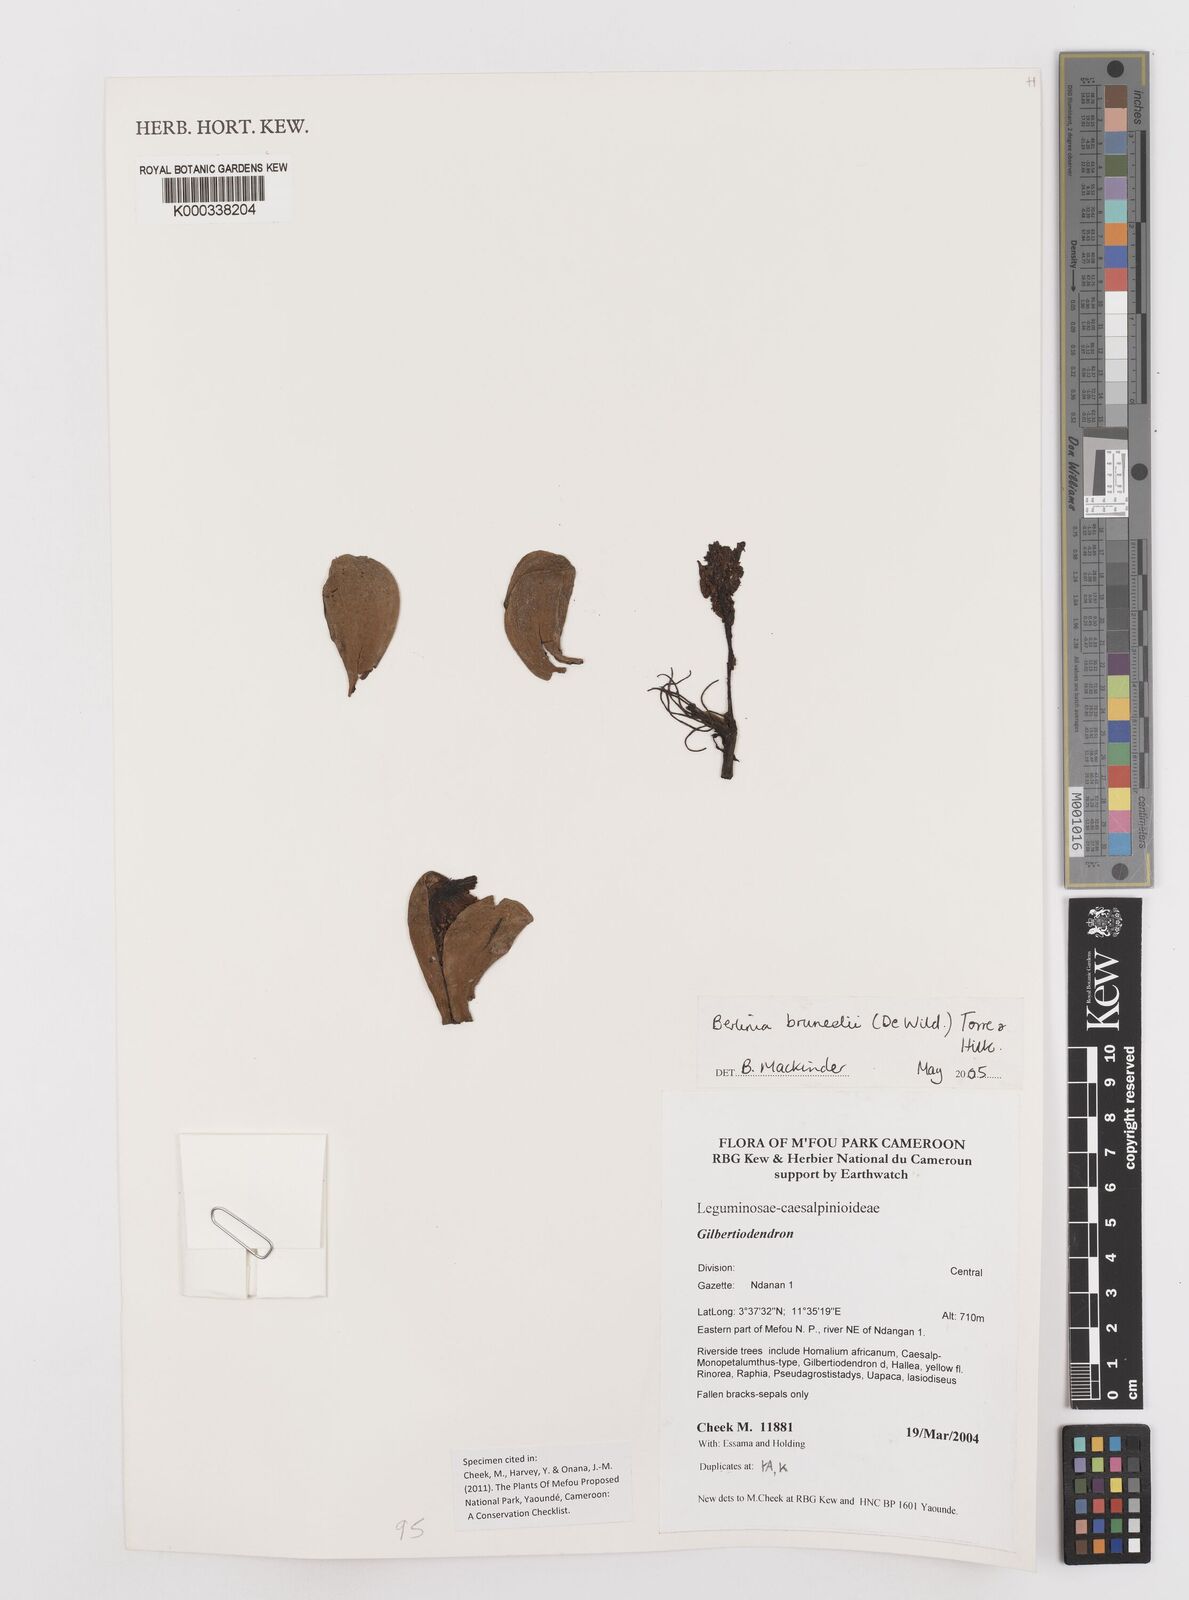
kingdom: Plantae
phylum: Tracheophyta
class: Magnoliopsida
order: Fabales
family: Fabaceae
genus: Berlinia
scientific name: Berlinia bruneelii
